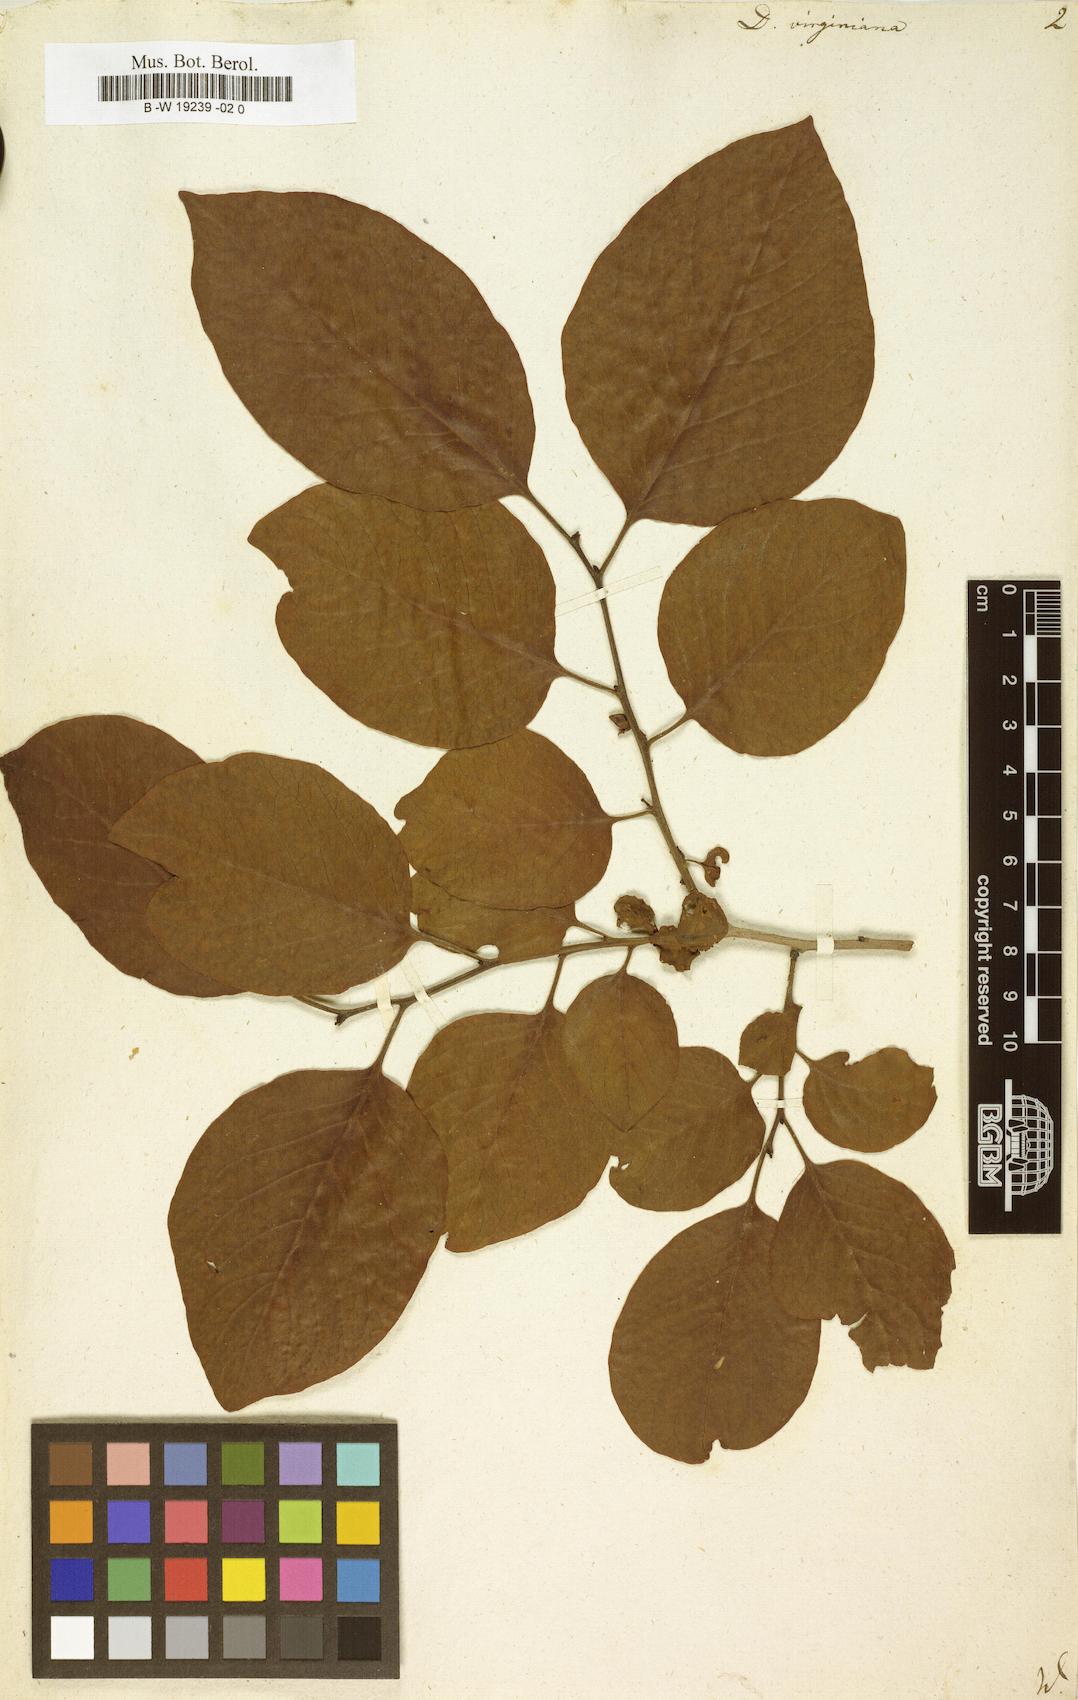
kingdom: Plantae
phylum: Tracheophyta
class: Magnoliopsida
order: Ericales
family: Ebenaceae
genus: Diospyros
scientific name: Diospyros virginiana
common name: Persimmon
